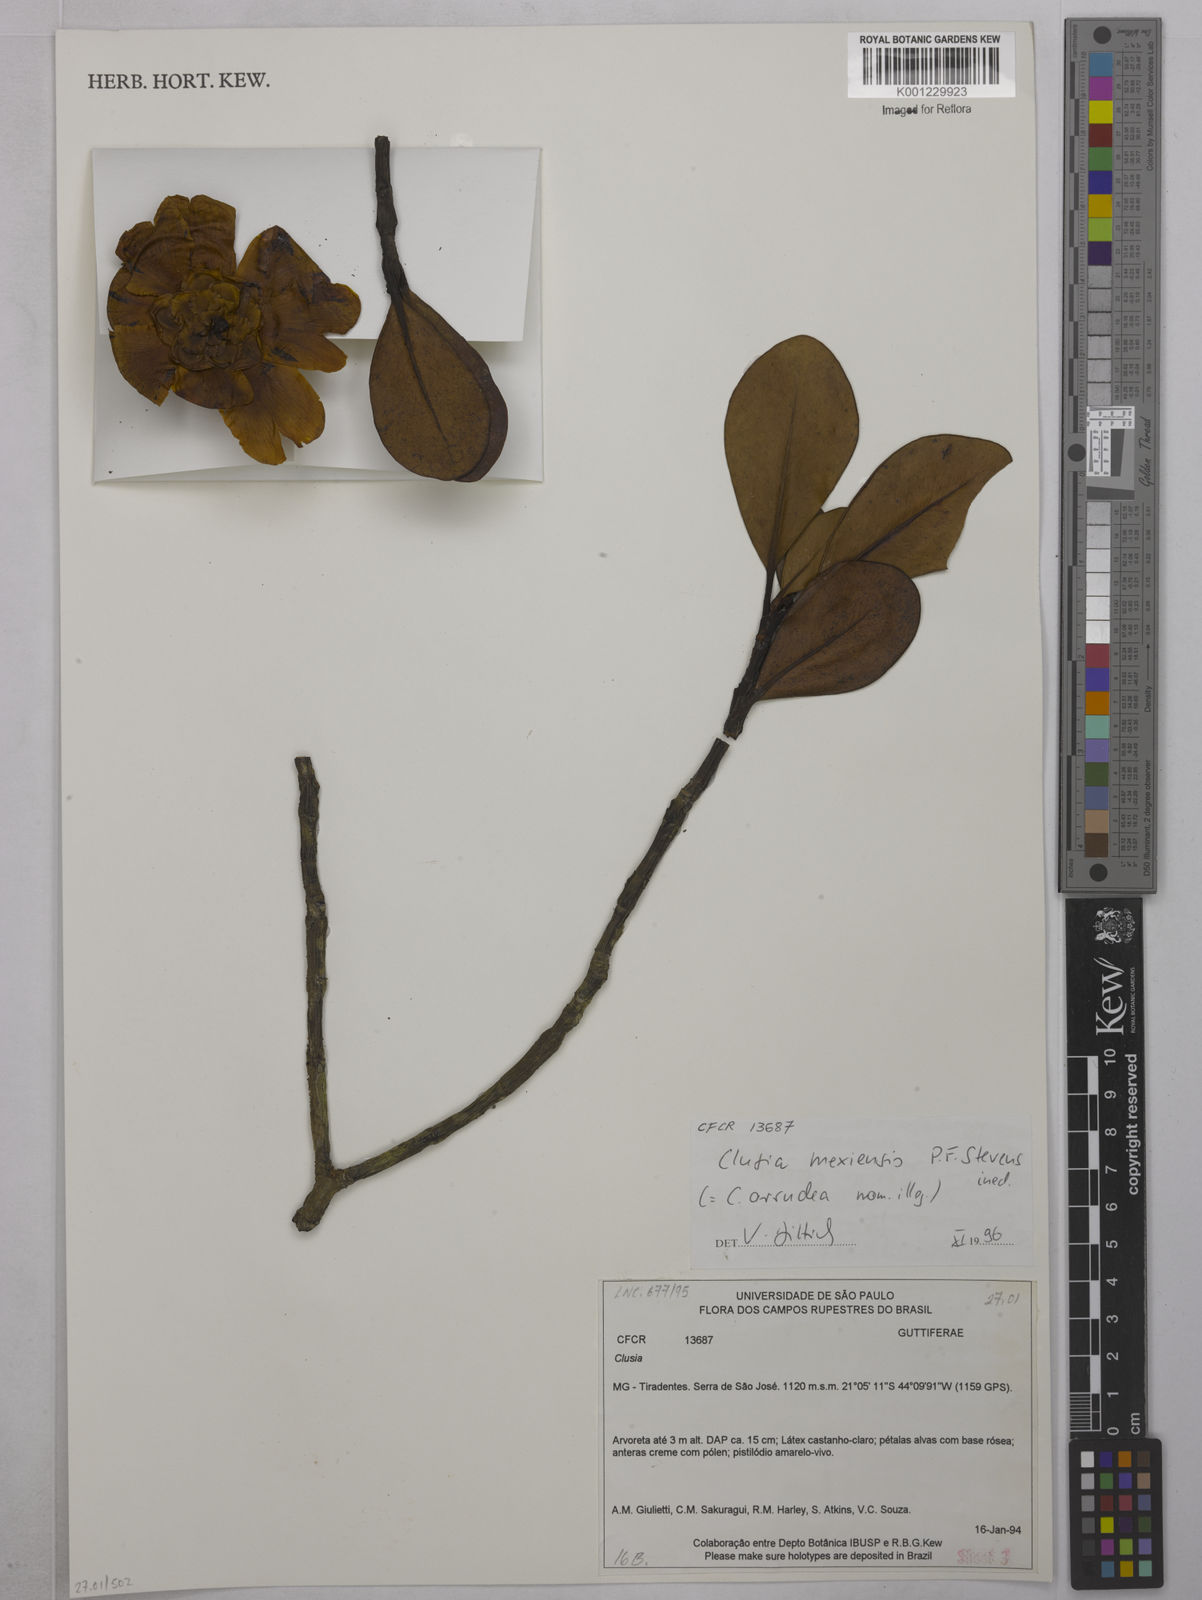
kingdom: Plantae
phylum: Tracheophyta
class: Magnoliopsida
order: Malpighiales
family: Clusiaceae
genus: Clusia
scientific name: Clusia
